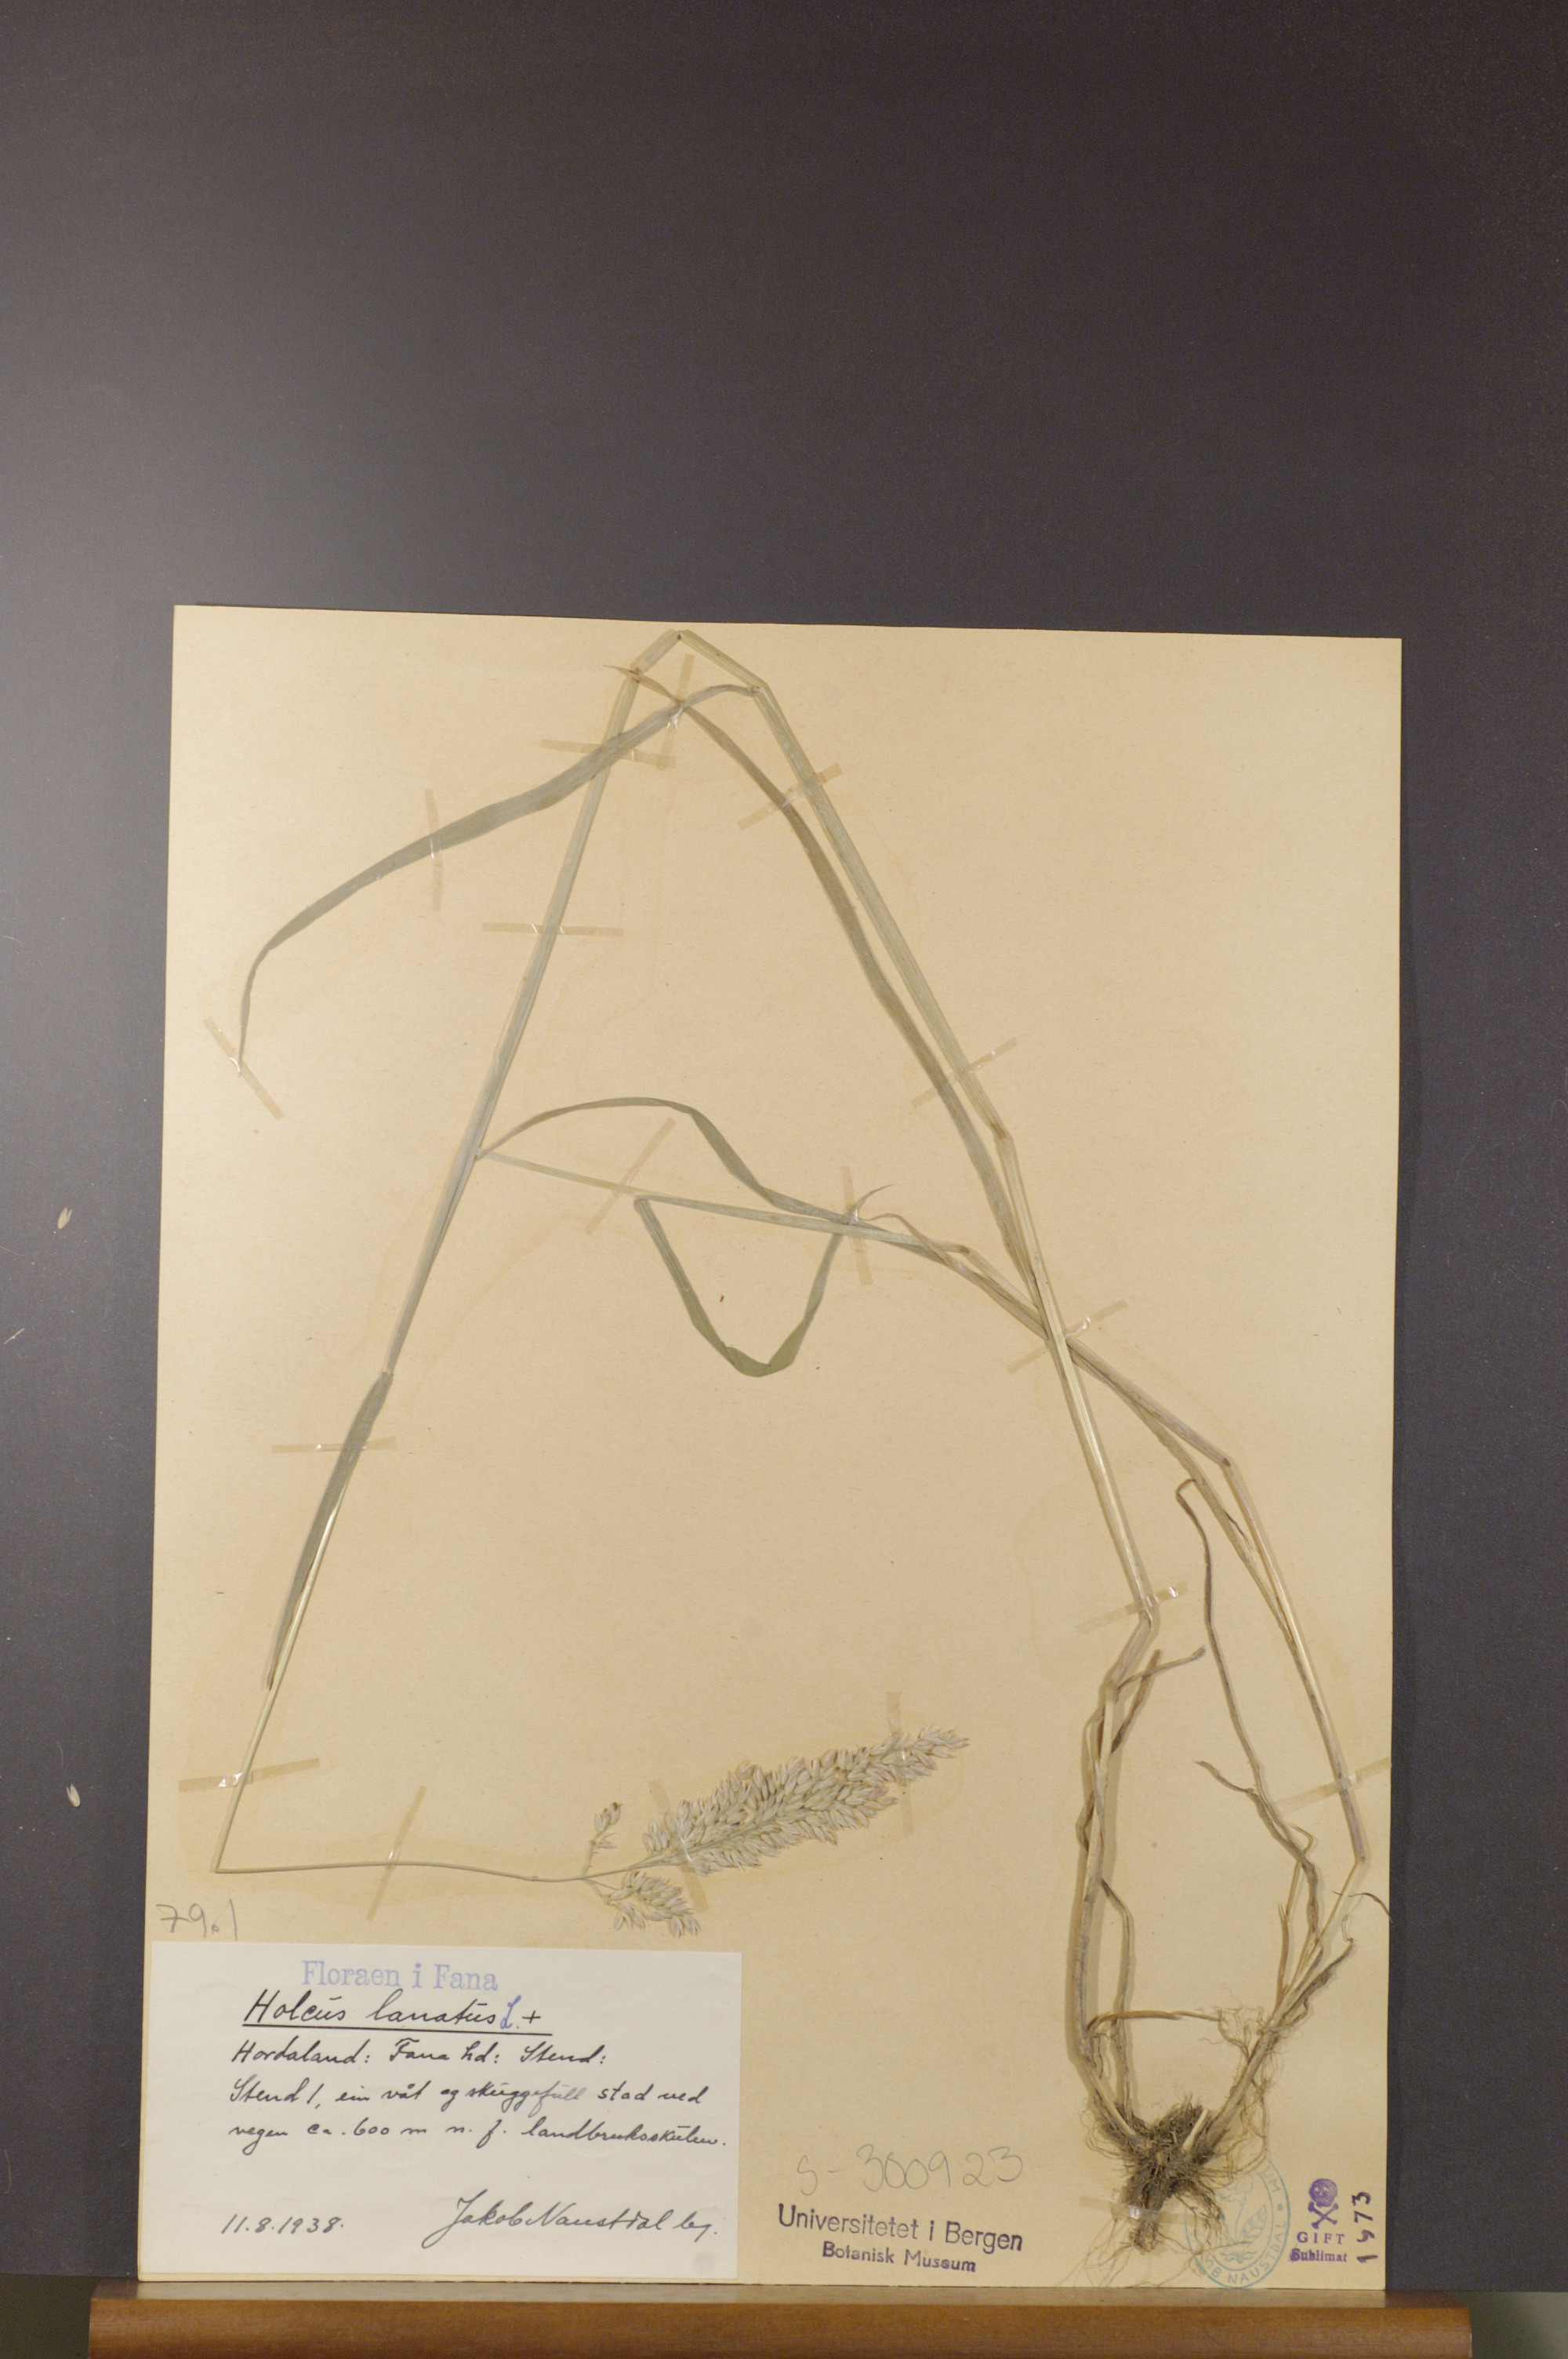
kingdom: Plantae
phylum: Tracheophyta
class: Liliopsida
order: Poales
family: Poaceae
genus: Holcus
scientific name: Holcus lanatus
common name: Yorkshire-fog
